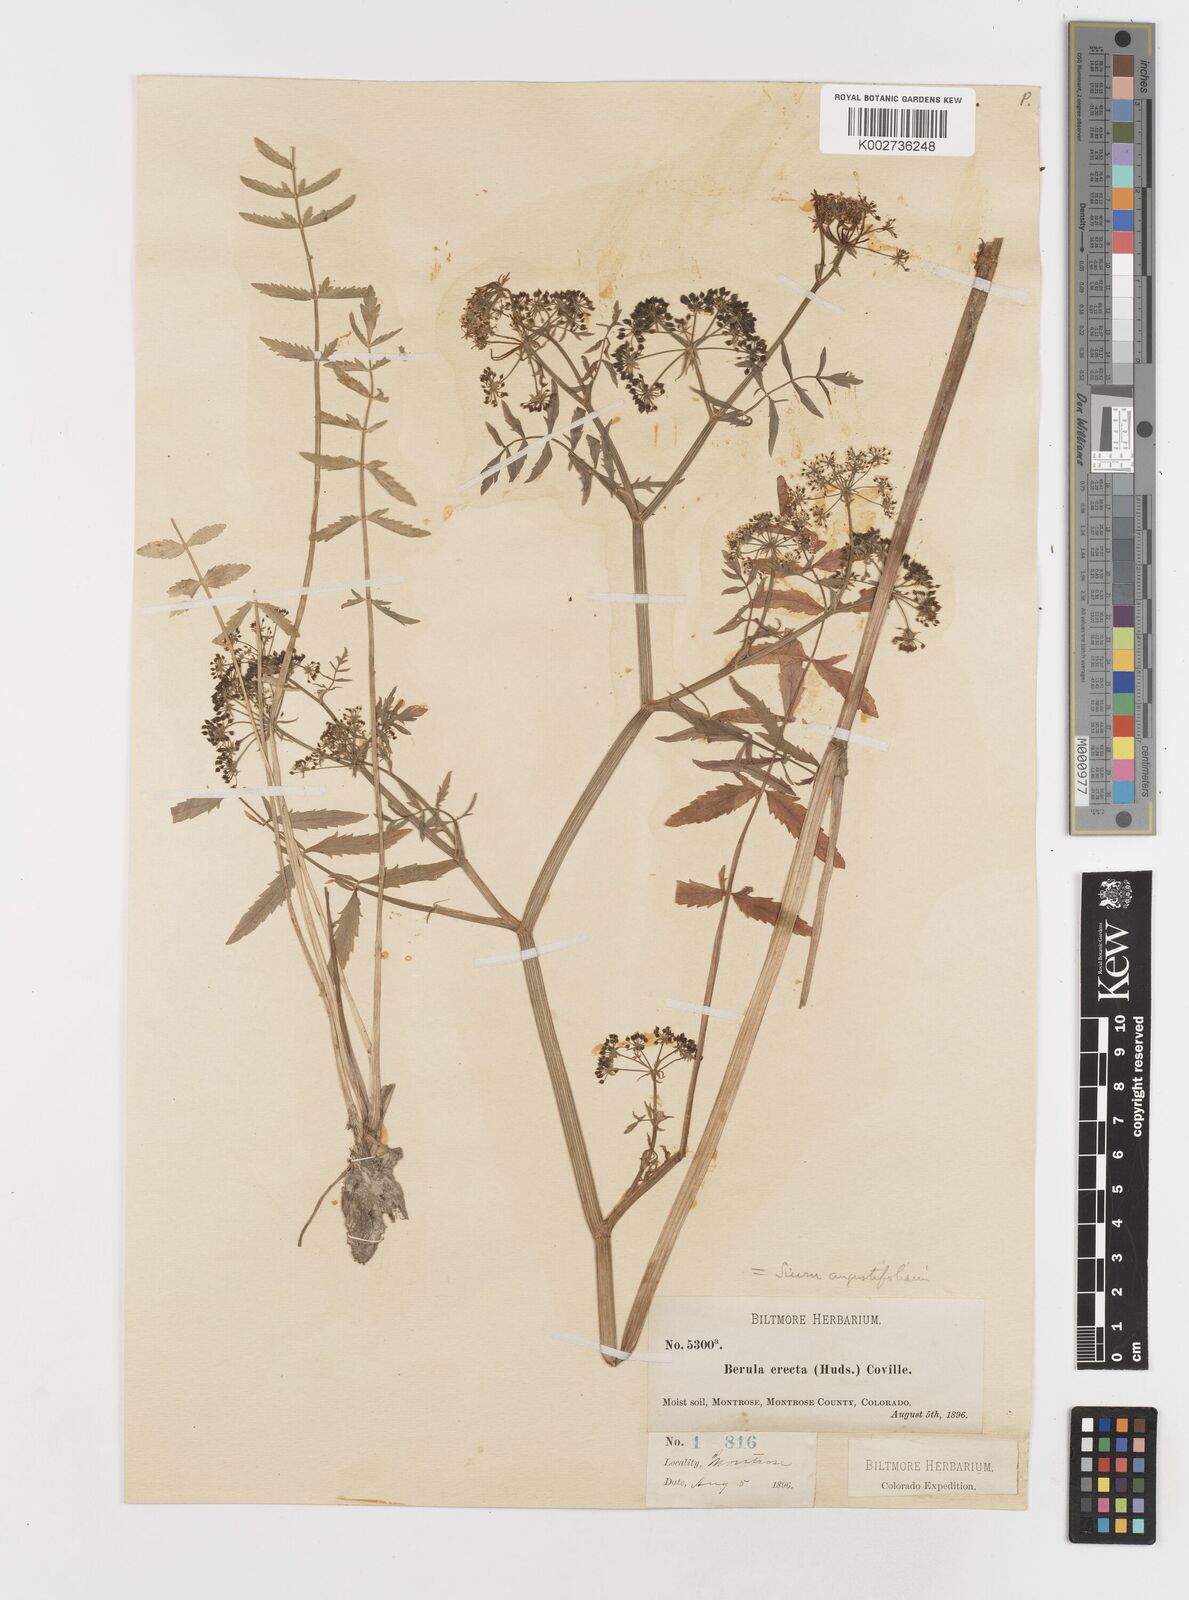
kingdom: Plantae
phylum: Tracheophyta
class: Magnoliopsida
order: Apiales
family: Apiaceae
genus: Berula
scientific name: Berula erecta
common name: Lesser water-parsnip
